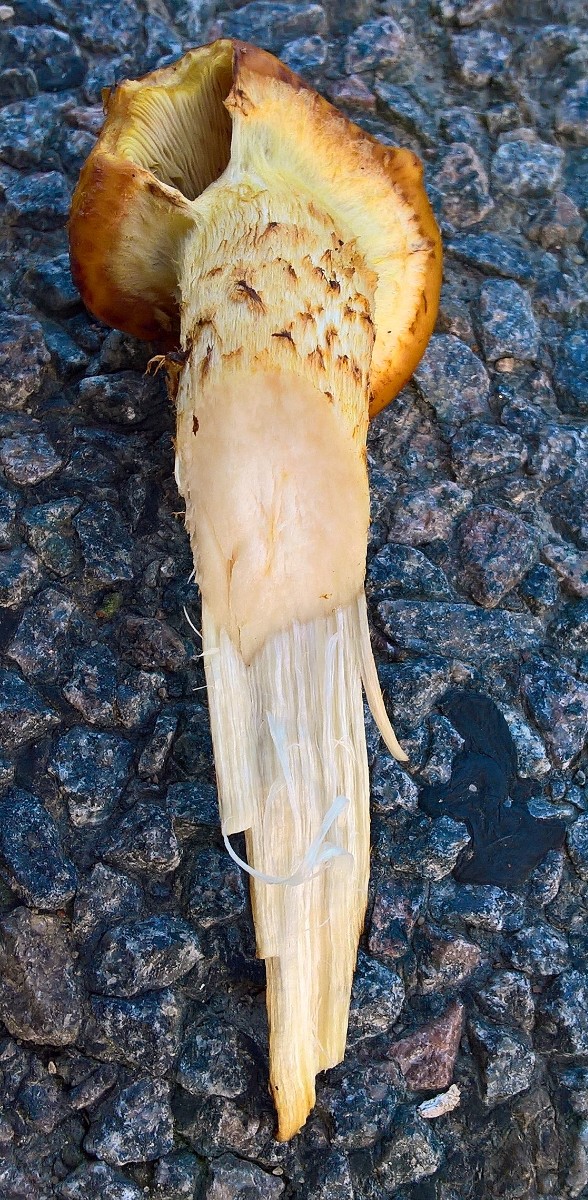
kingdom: Fungi
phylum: Basidiomycota
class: Agaricomycetes
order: Agaricales
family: Strophariaceae
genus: Pholiota
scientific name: Pholiota adiposa
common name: højtsiddende skælhat
